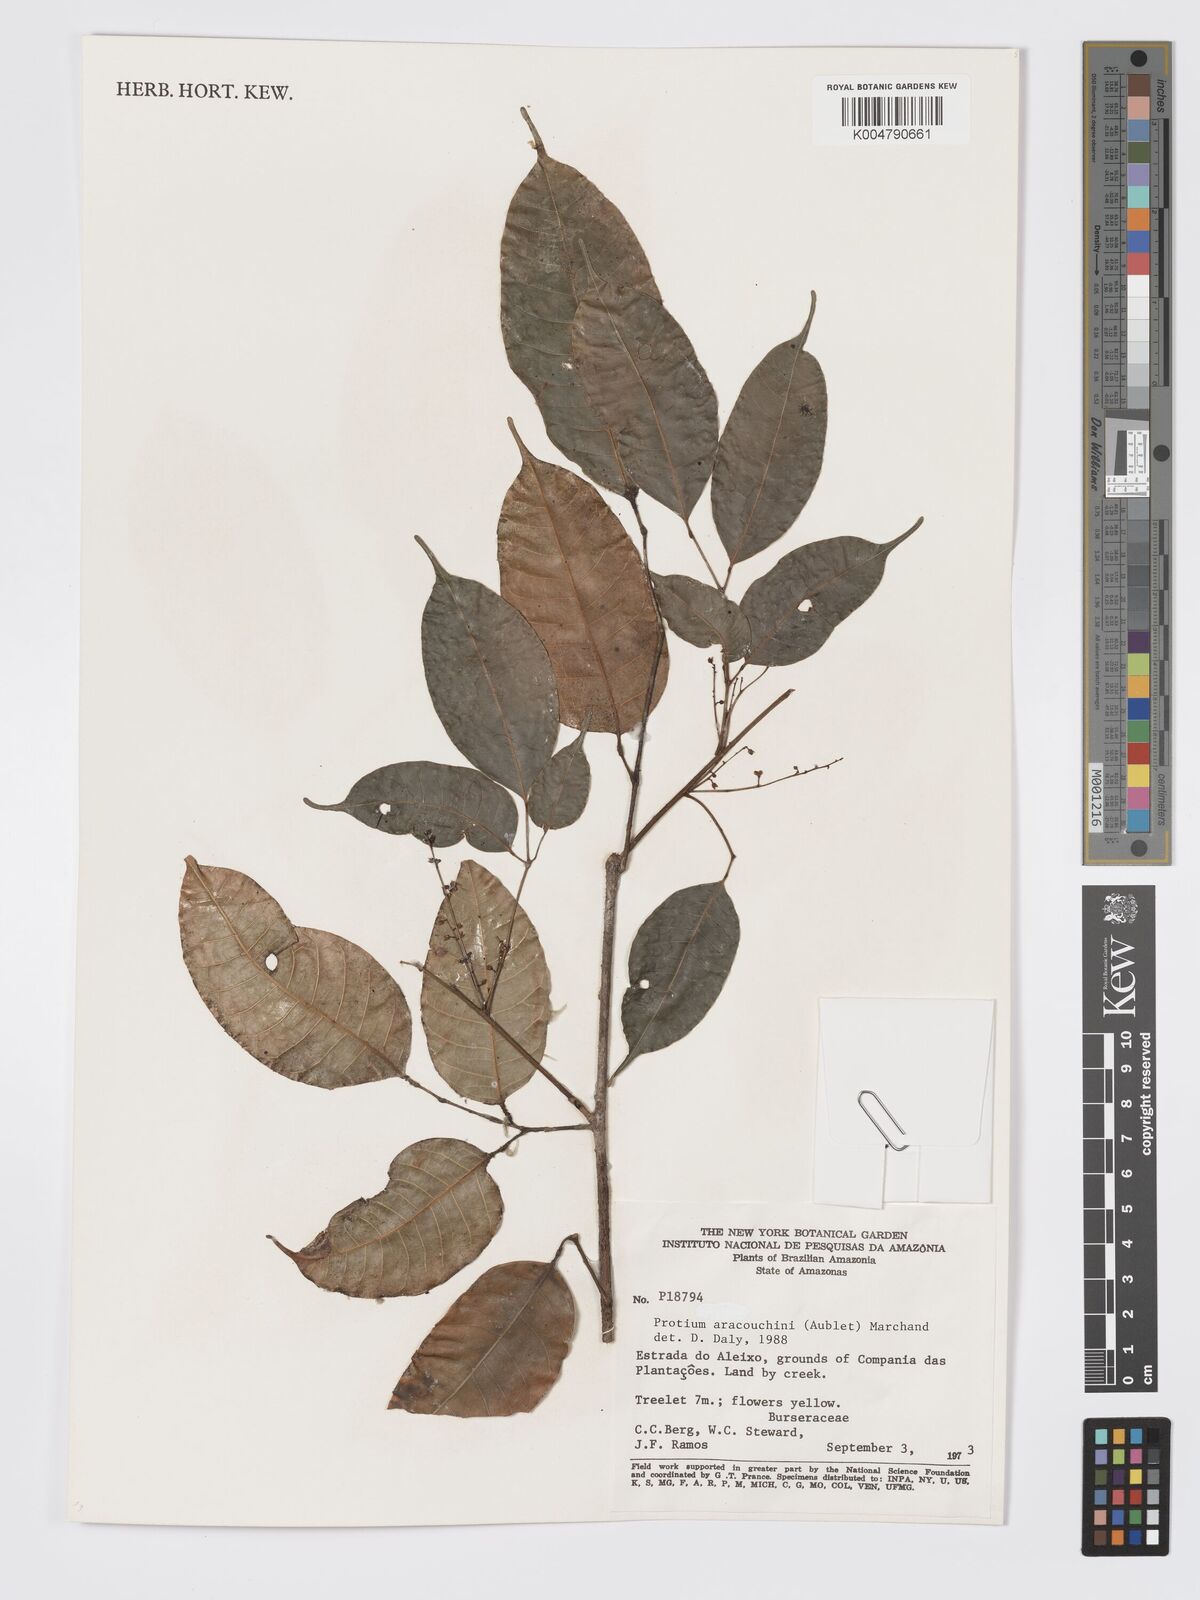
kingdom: Plantae
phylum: Tracheophyta
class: Magnoliopsida
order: Sapindales
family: Burseraceae
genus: Protium
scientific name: Protium aracouchini
